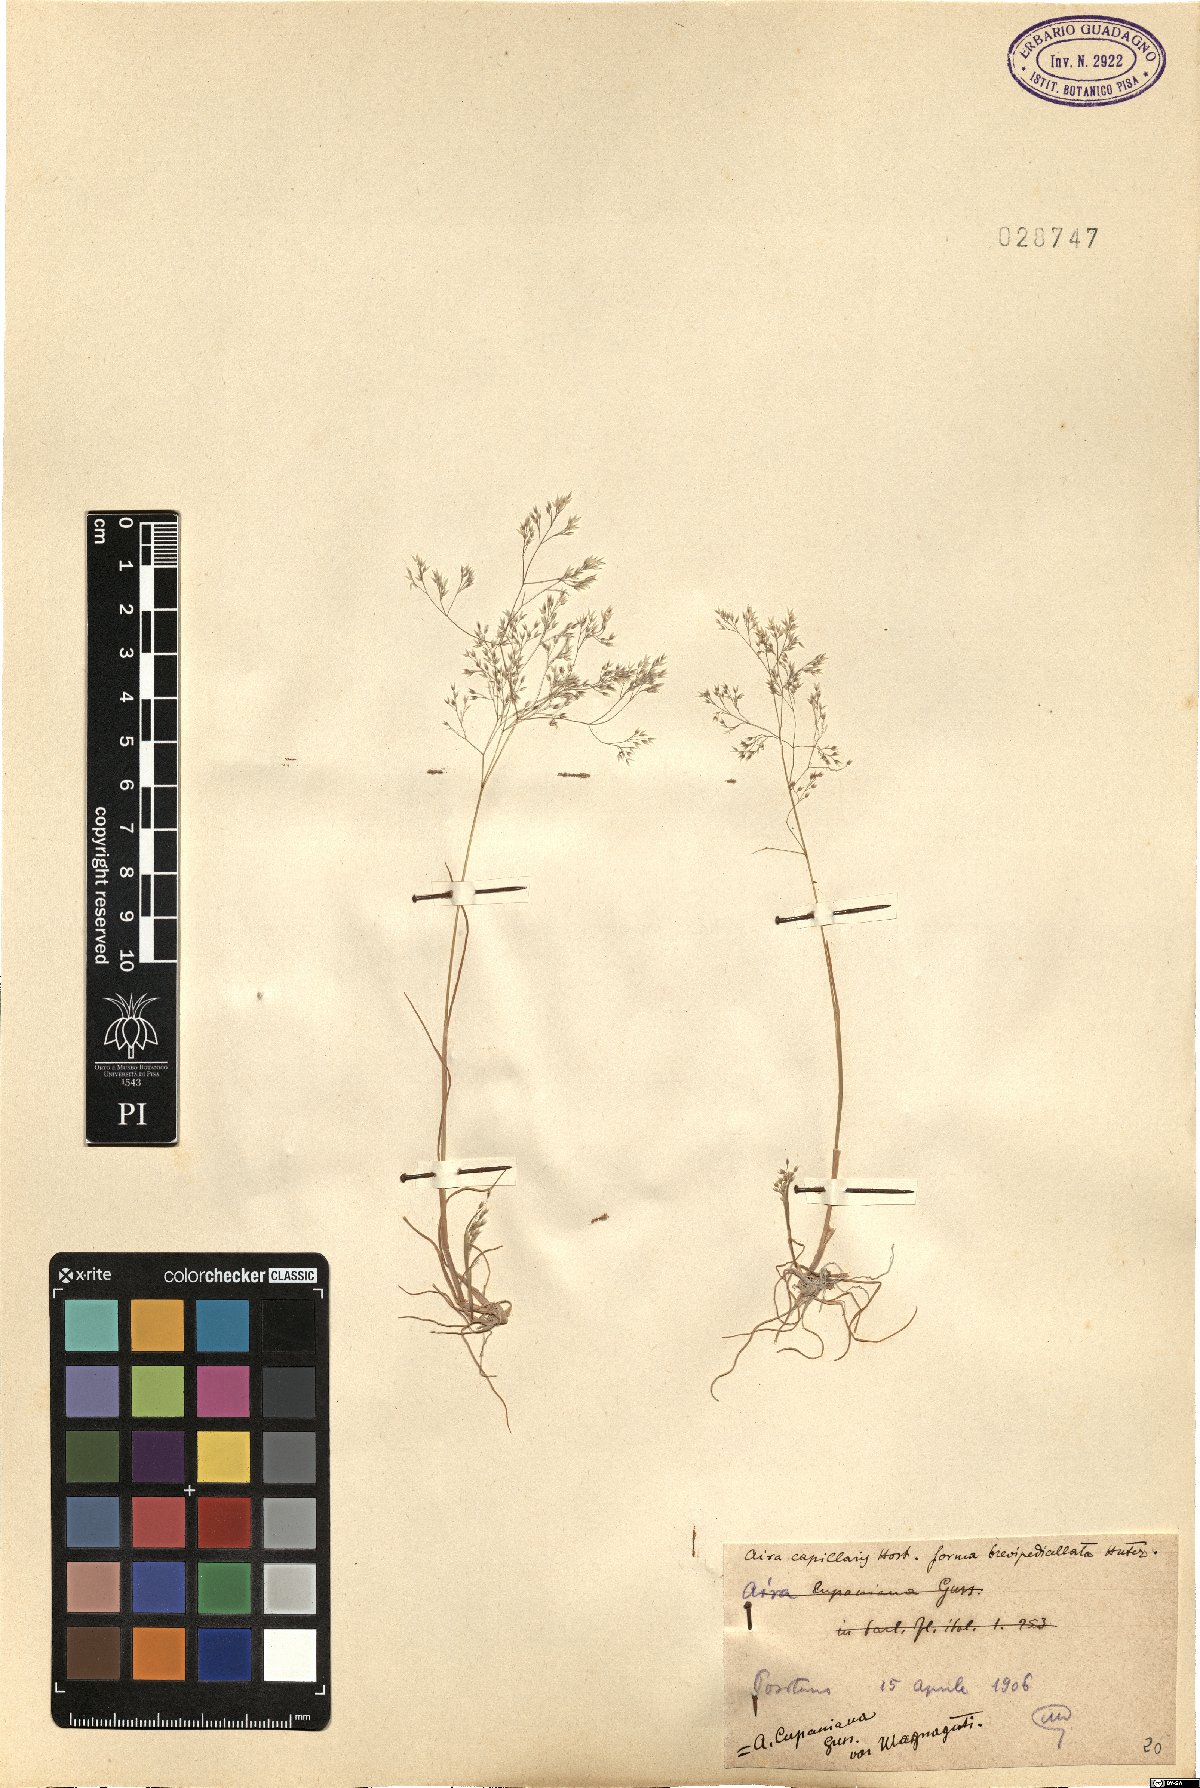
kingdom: Plantae
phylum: Tracheophyta
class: Liliopsida
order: Poales
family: Poaceae
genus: Aira
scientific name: Aira cupaniana
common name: Silver hairgrass
